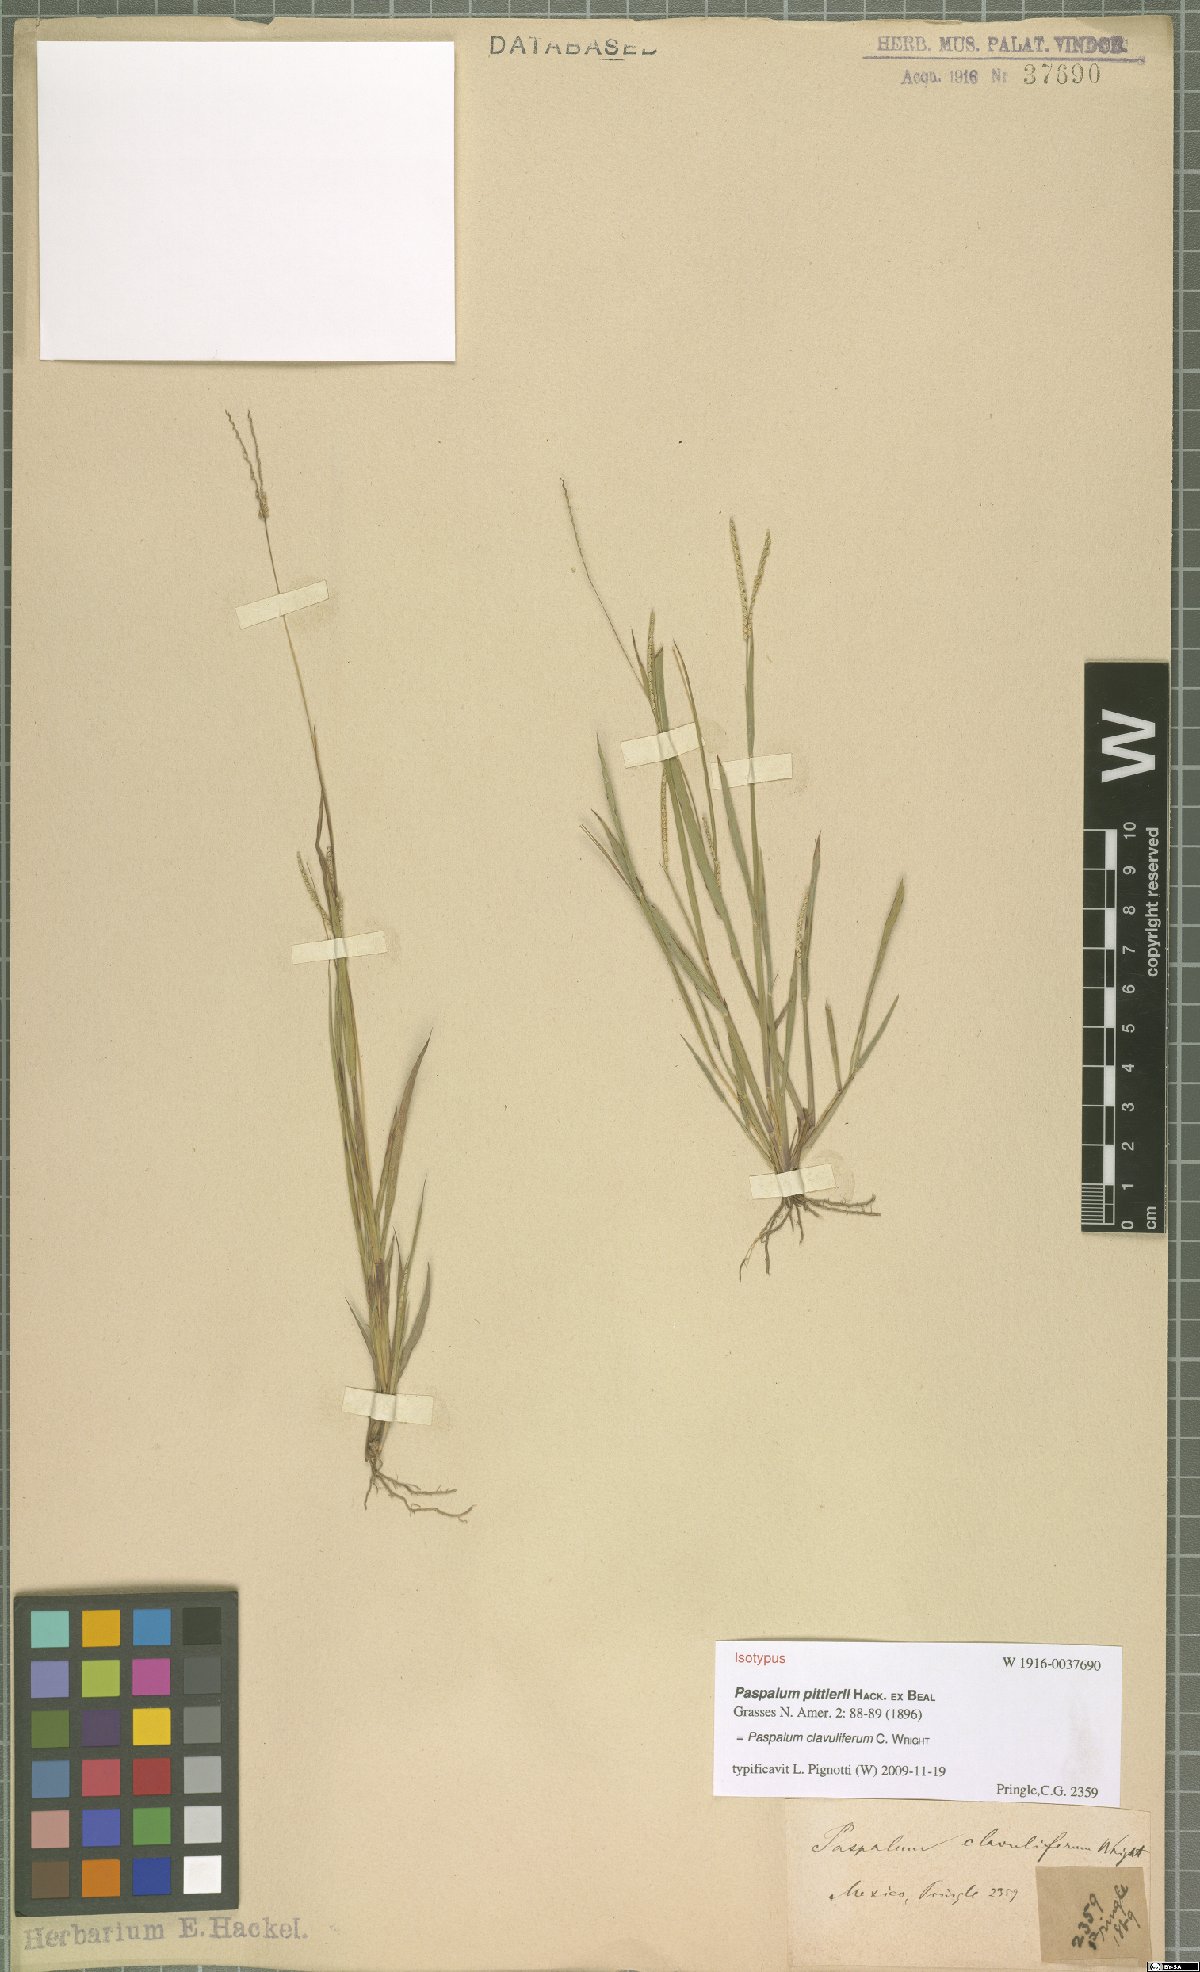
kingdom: Plantae
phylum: Tracheophyta
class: Liliopsida
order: Poales
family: Poaceae
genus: Paspalum
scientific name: Paspalum clavuliferum
